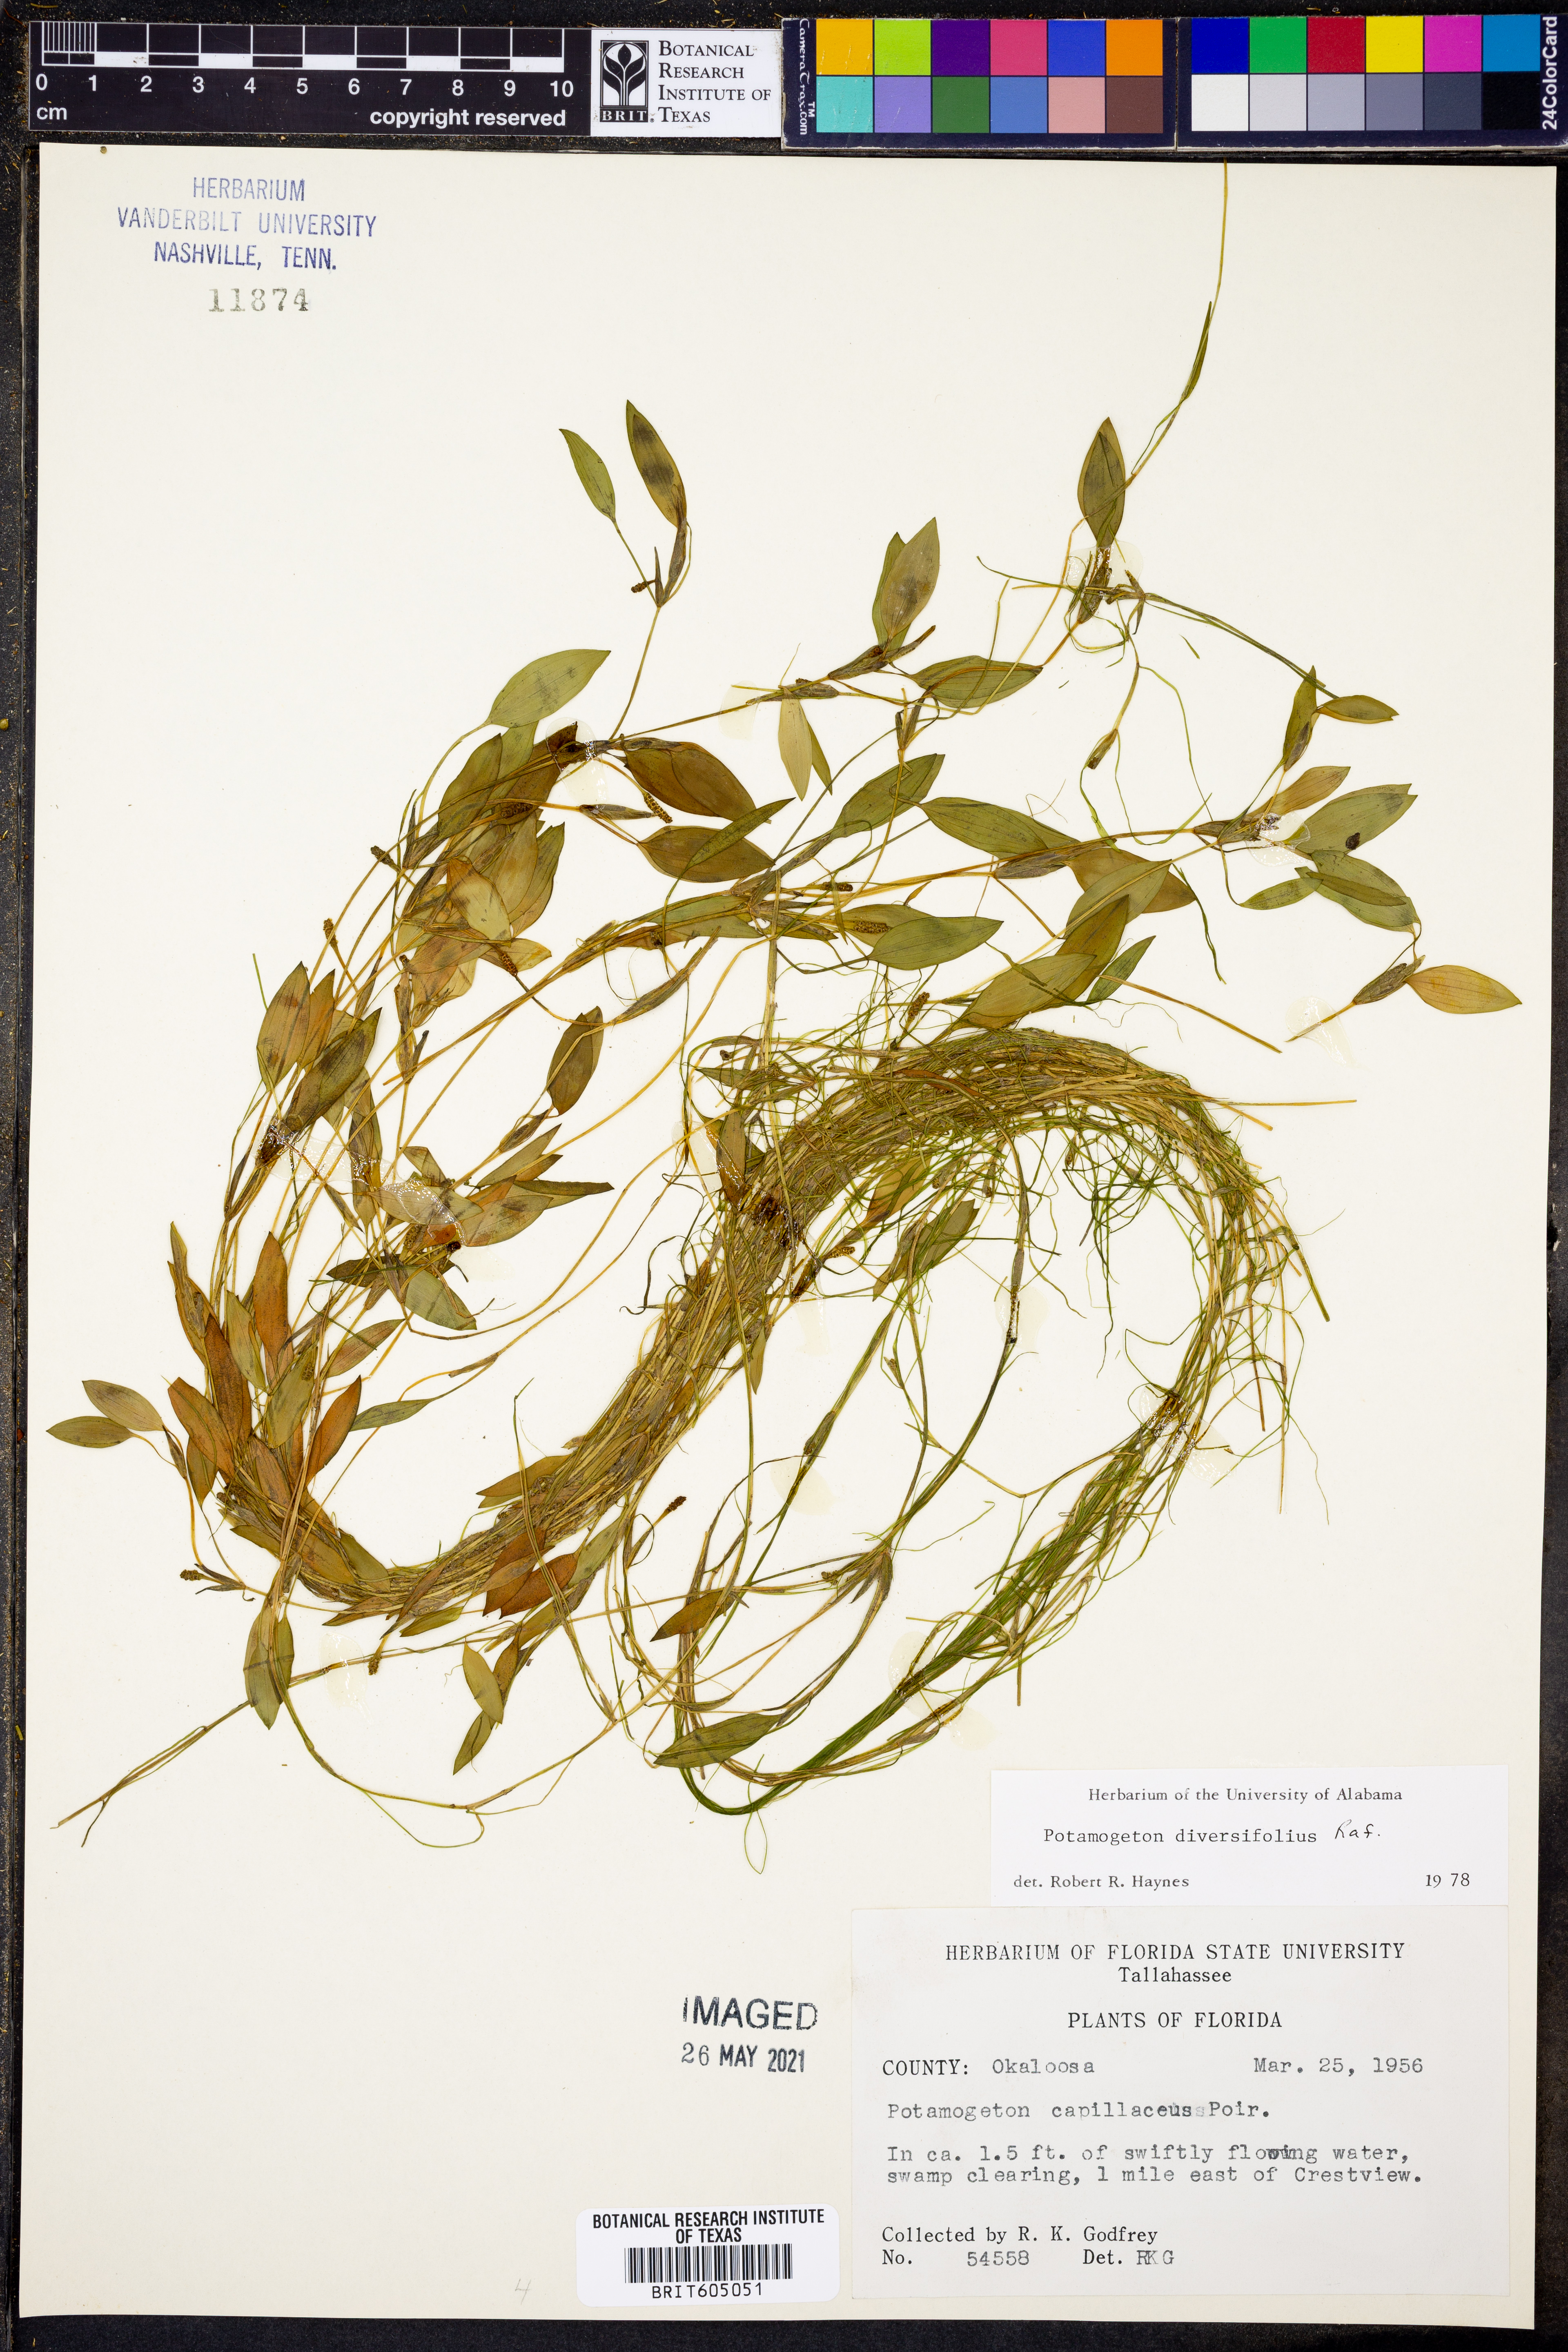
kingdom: Plantae
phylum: Tracheophyta
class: Liliopsida
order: Alismatales
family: Potamogetonaceae
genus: Potamogeton
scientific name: Potamogeton diversifolius
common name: Water-thread pondweed
